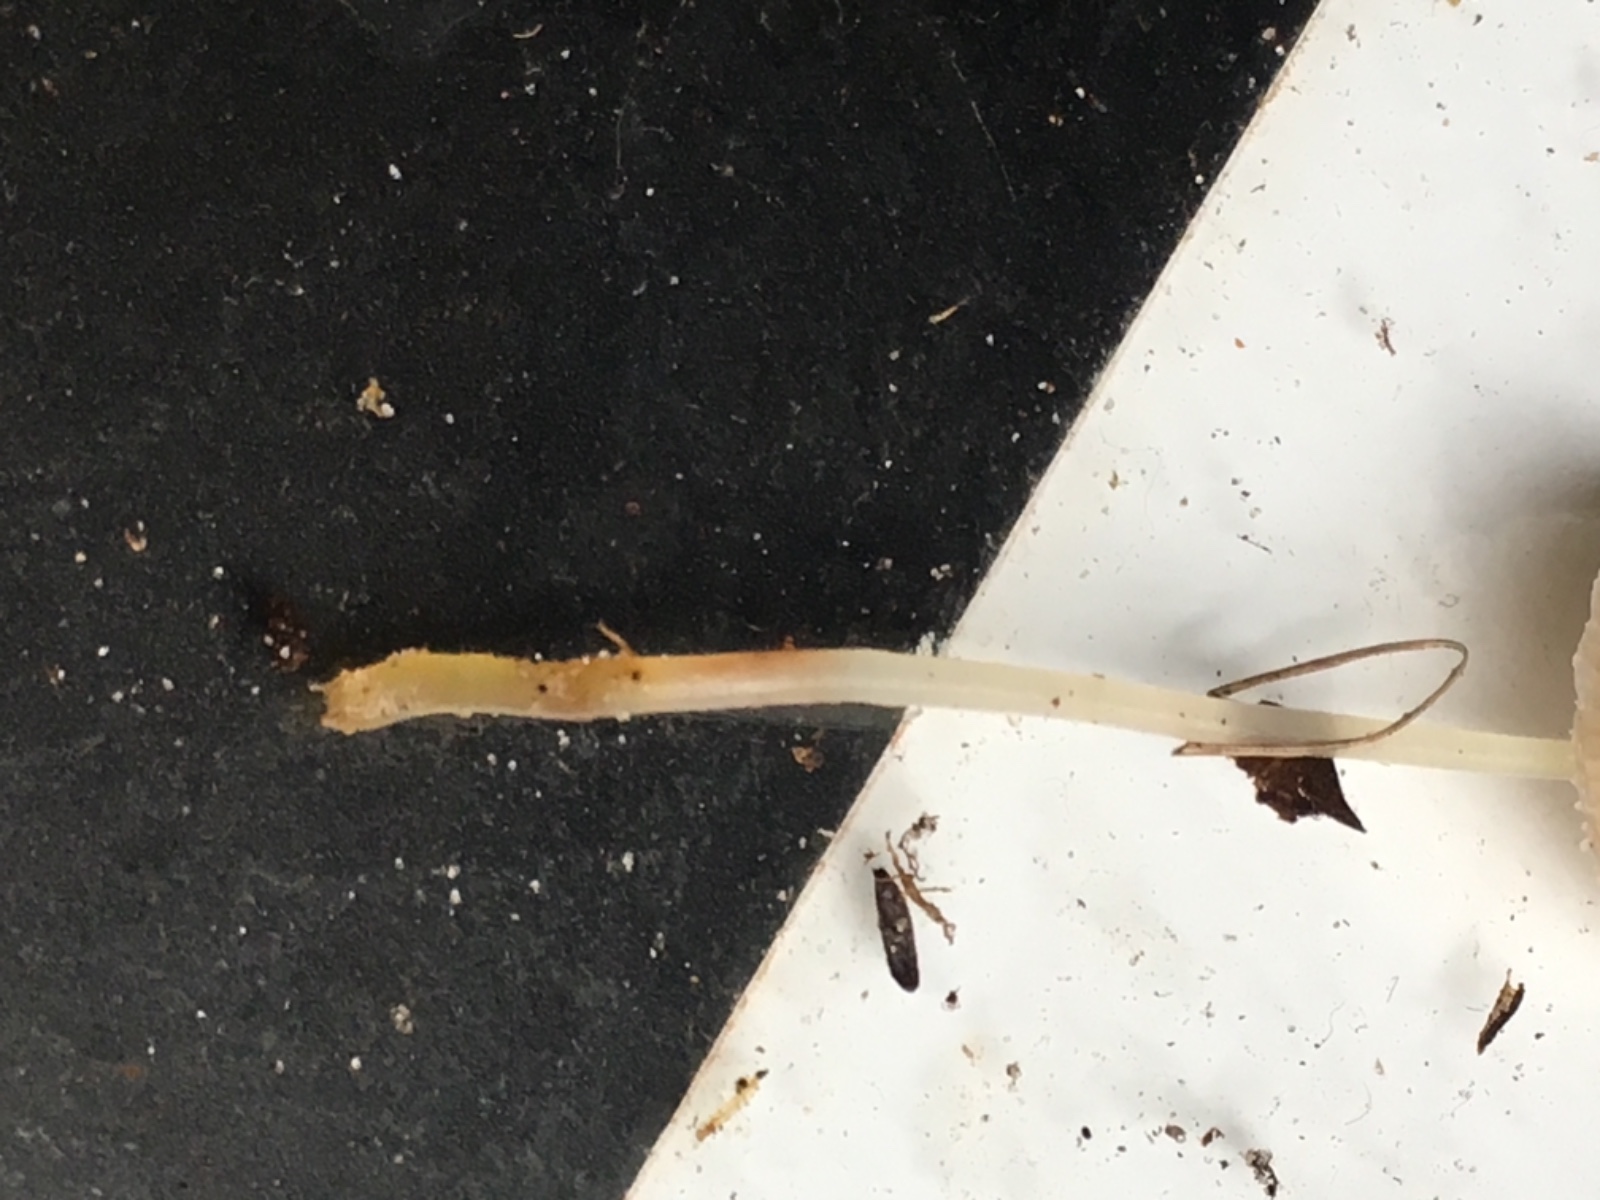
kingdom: Fungi
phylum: Basidiomycota
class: Agaricomycetes
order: Agaricales
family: Mycenaceae
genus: Mycena
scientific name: Mycena
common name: huesvamp
